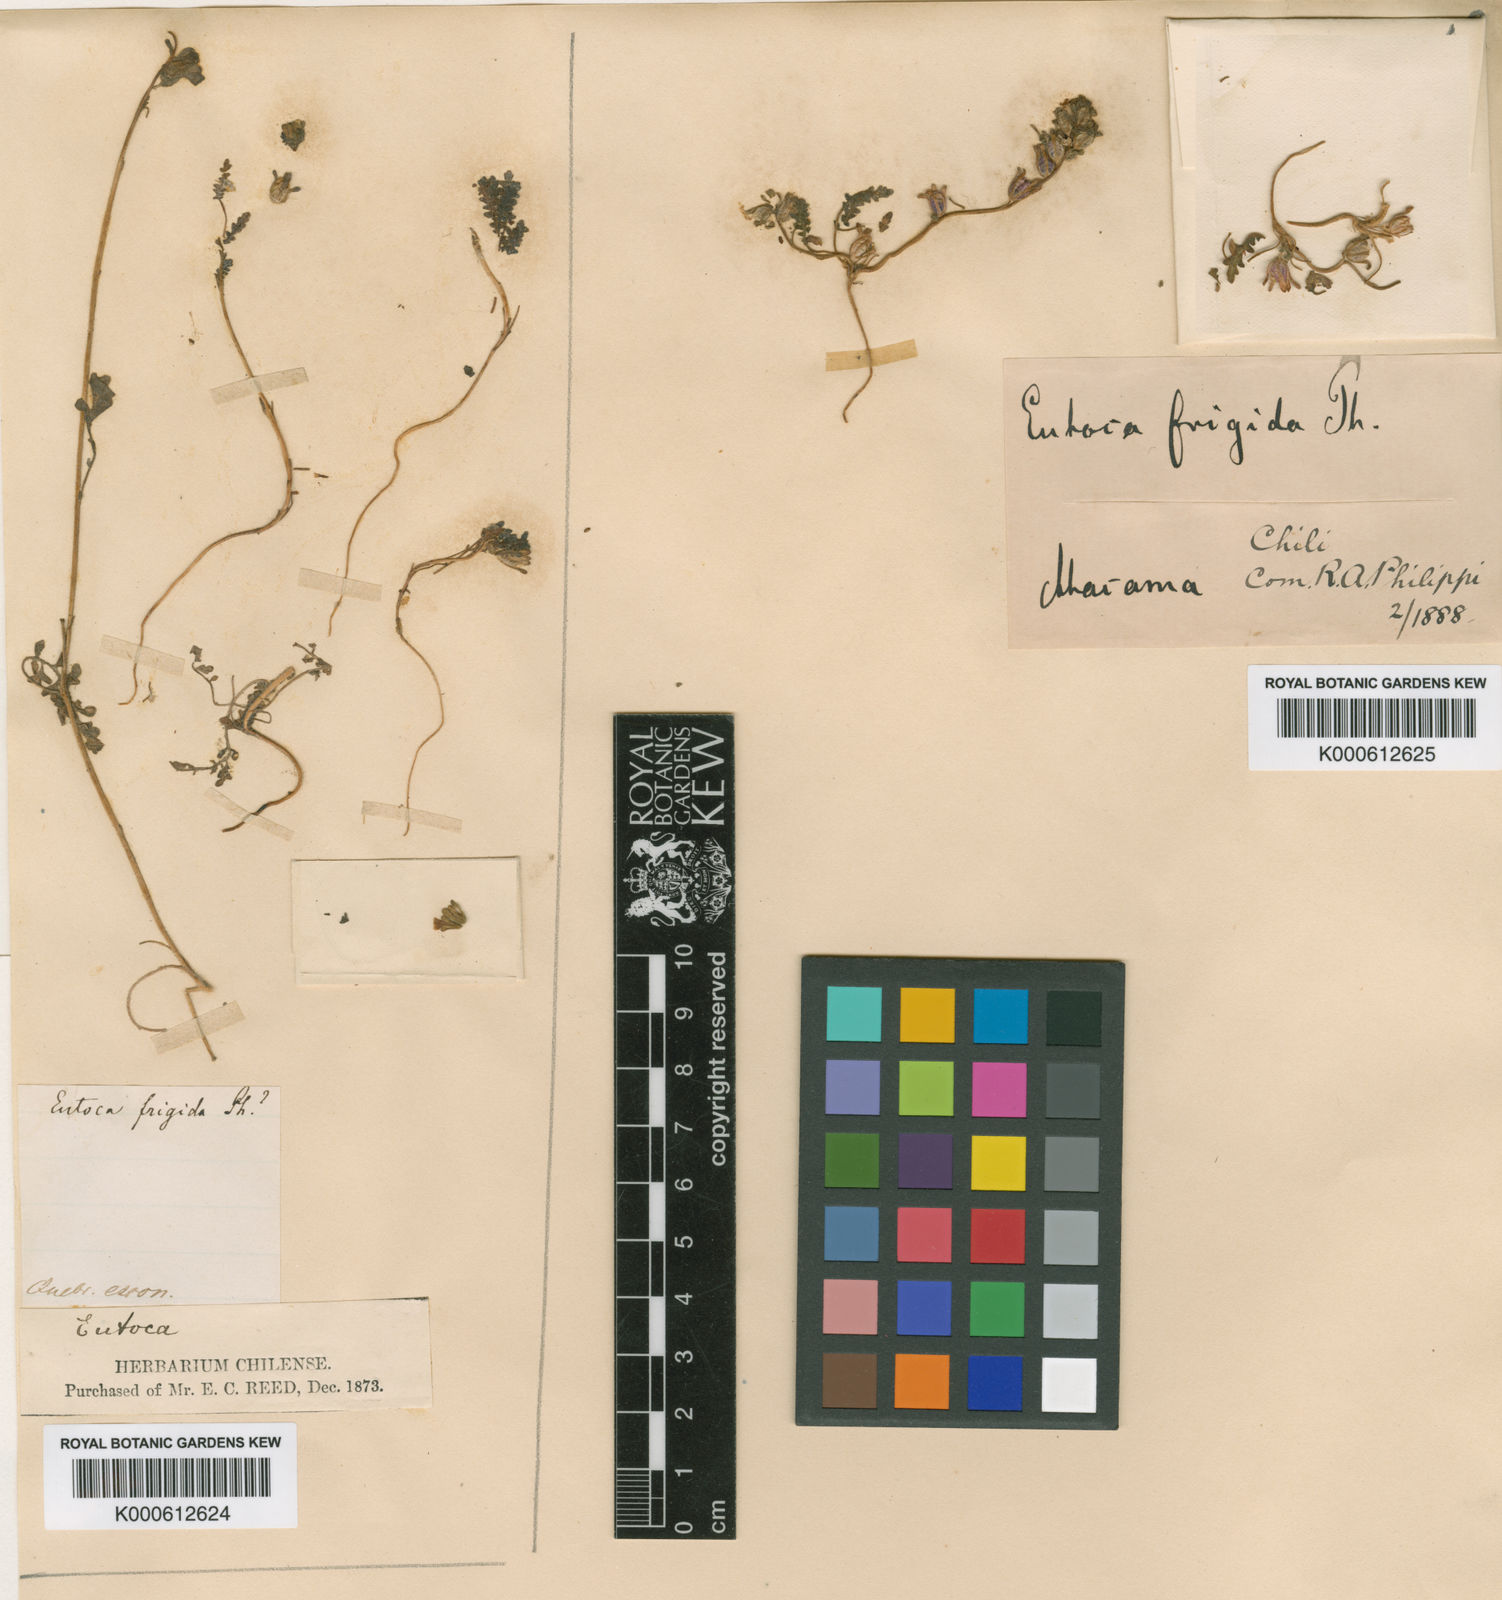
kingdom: Plantae
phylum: Tracheophyta
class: Magnoliopsida
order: Boraginales
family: Hydrophyllaceae
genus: Phacelia
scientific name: Phacelia cumingii
